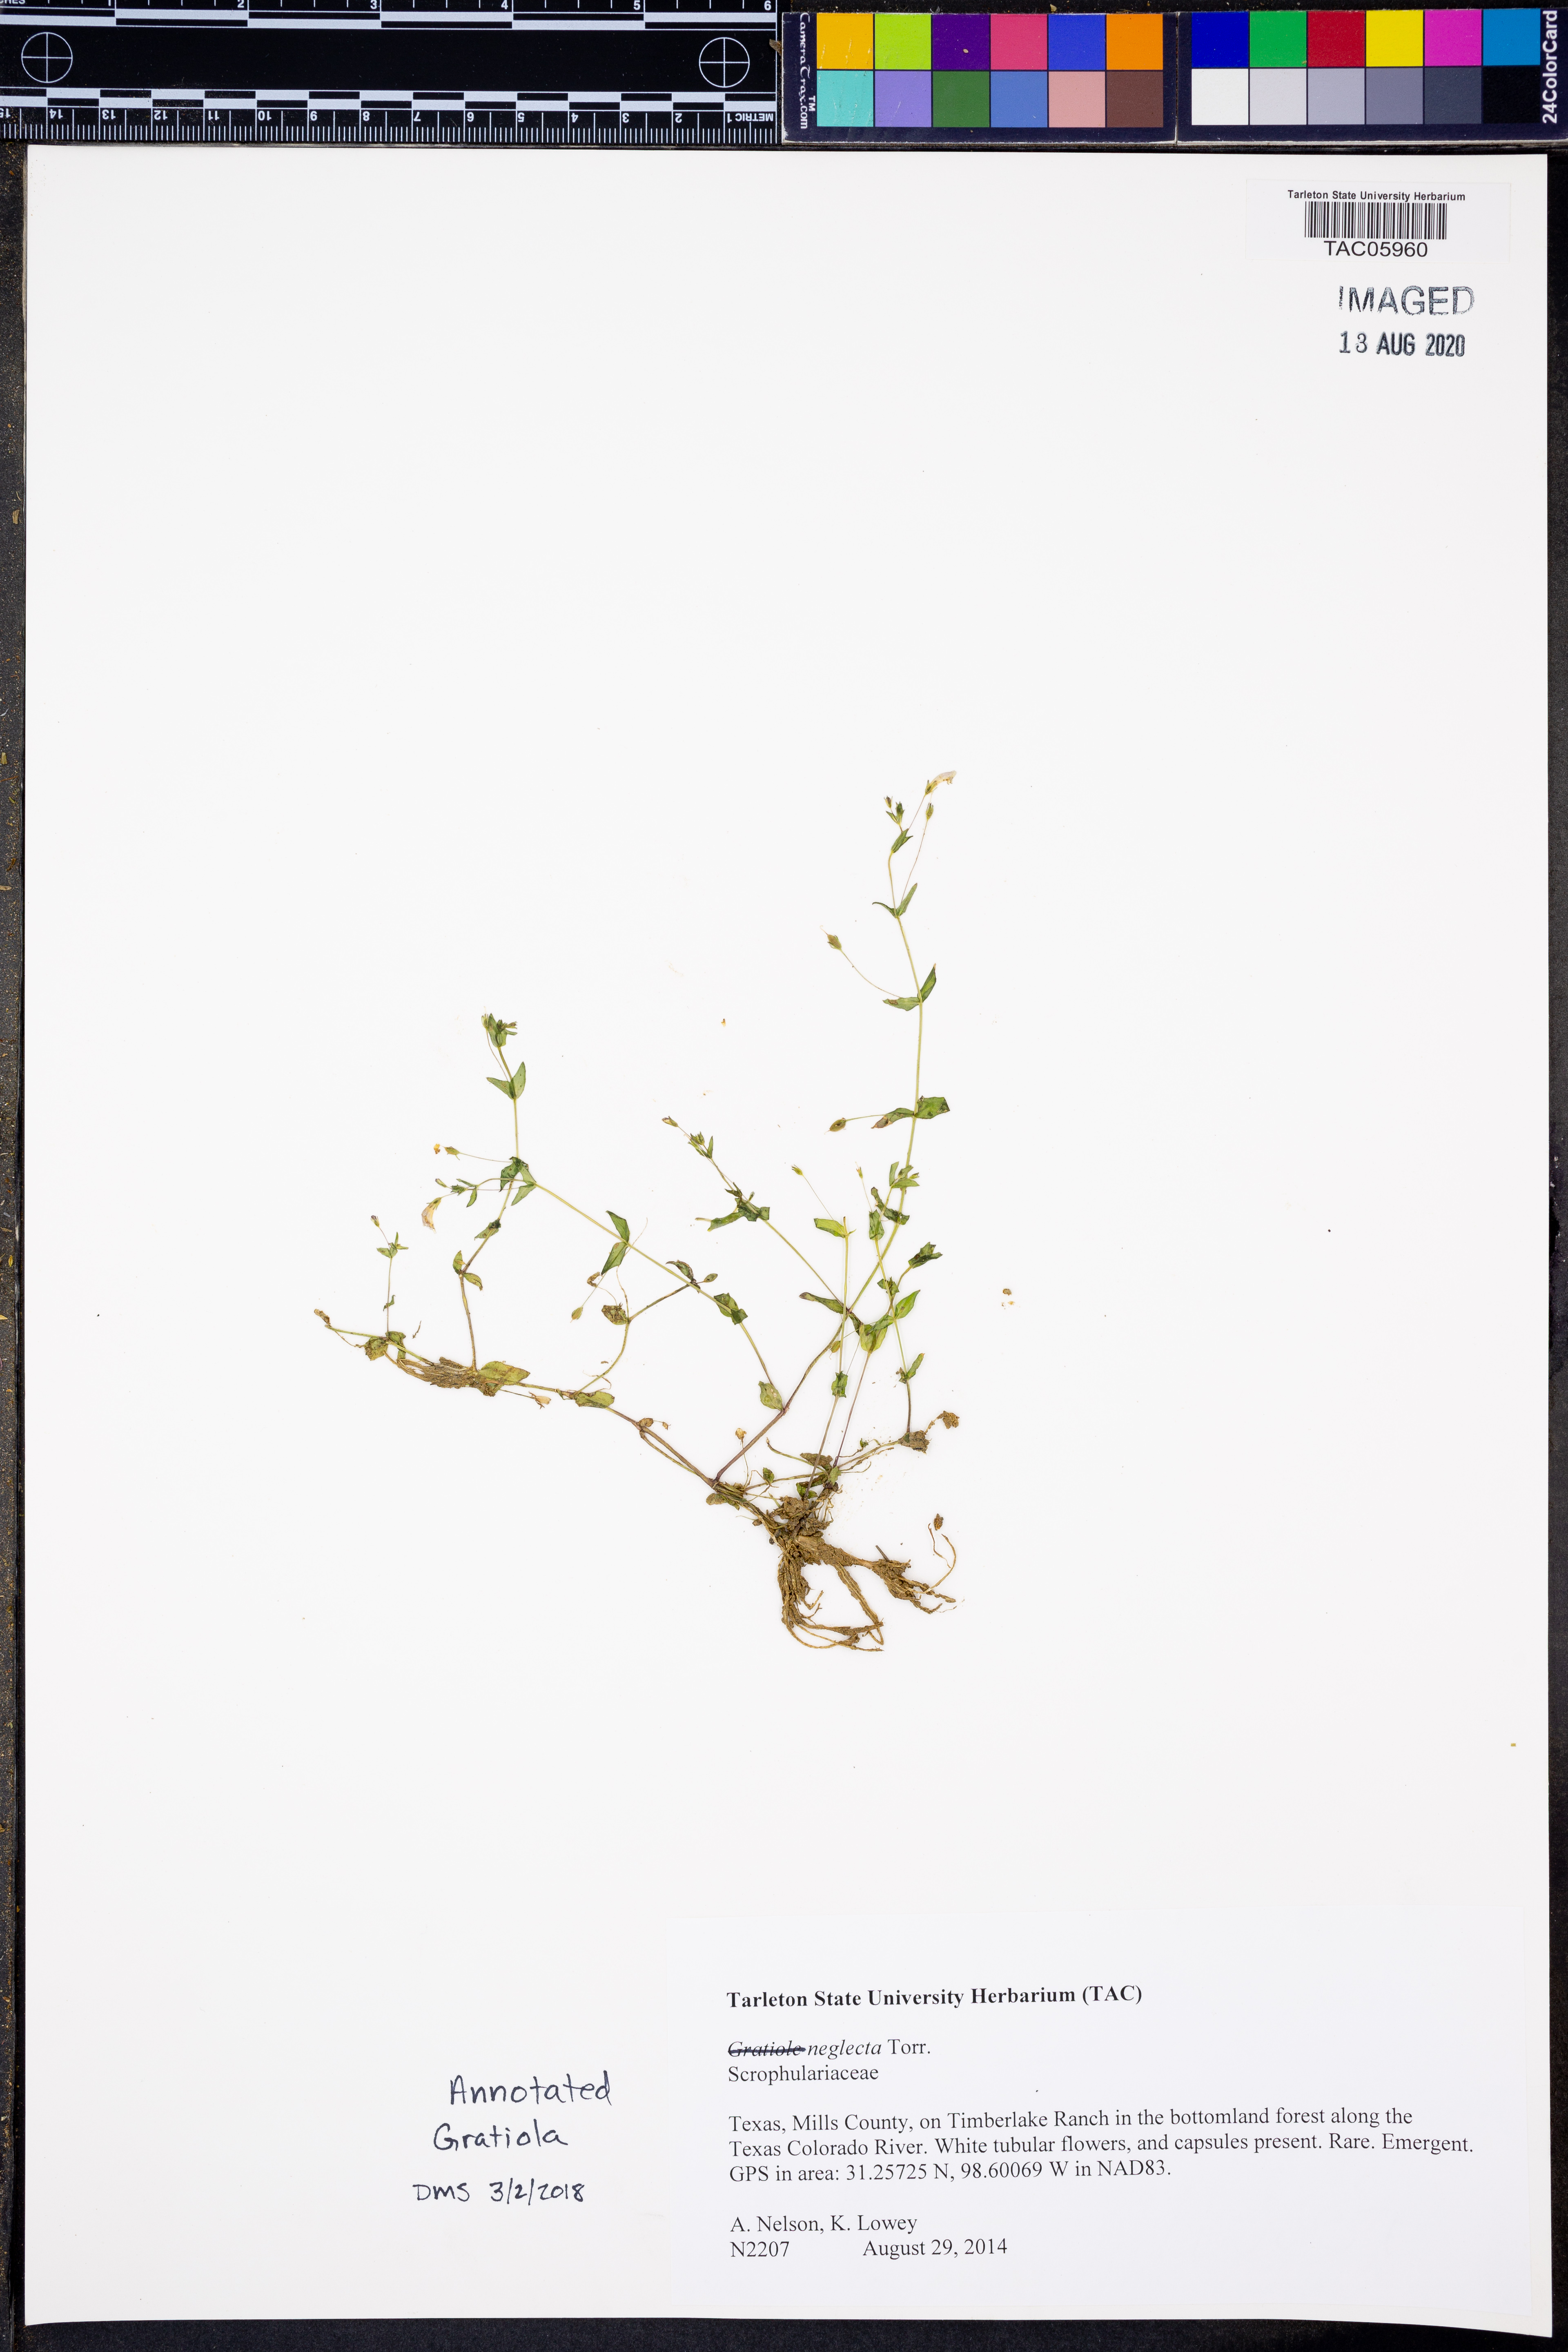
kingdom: Plantae
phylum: Tracheophyta
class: Magnoliopsida
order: Lamiales
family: Plantaginaceae
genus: Gratiola
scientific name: Gratiola neglecta
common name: American hedge-hyssop
